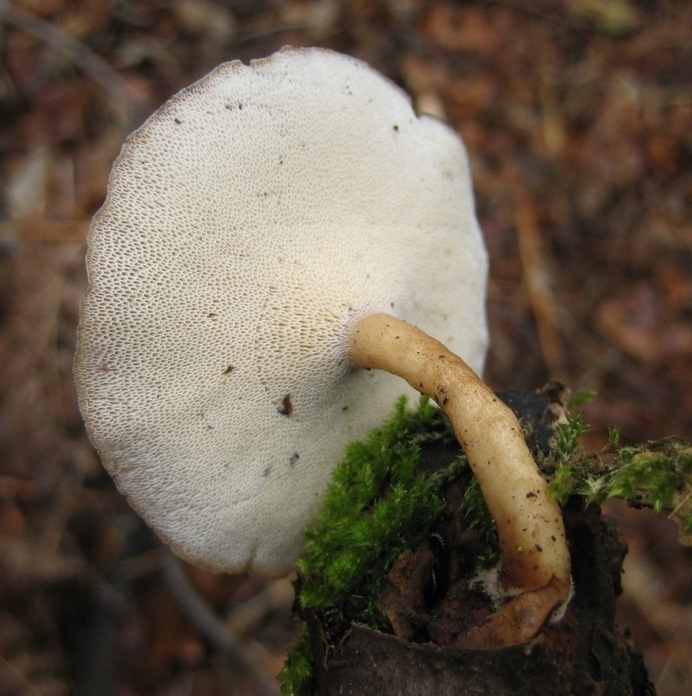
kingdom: Fungi
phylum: Basidiomycota
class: Agaricomycetes
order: Polyporales
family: Polyporaceae
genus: Lentinus
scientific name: Lentinus brumalis
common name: vinter-stilkporesvamp
